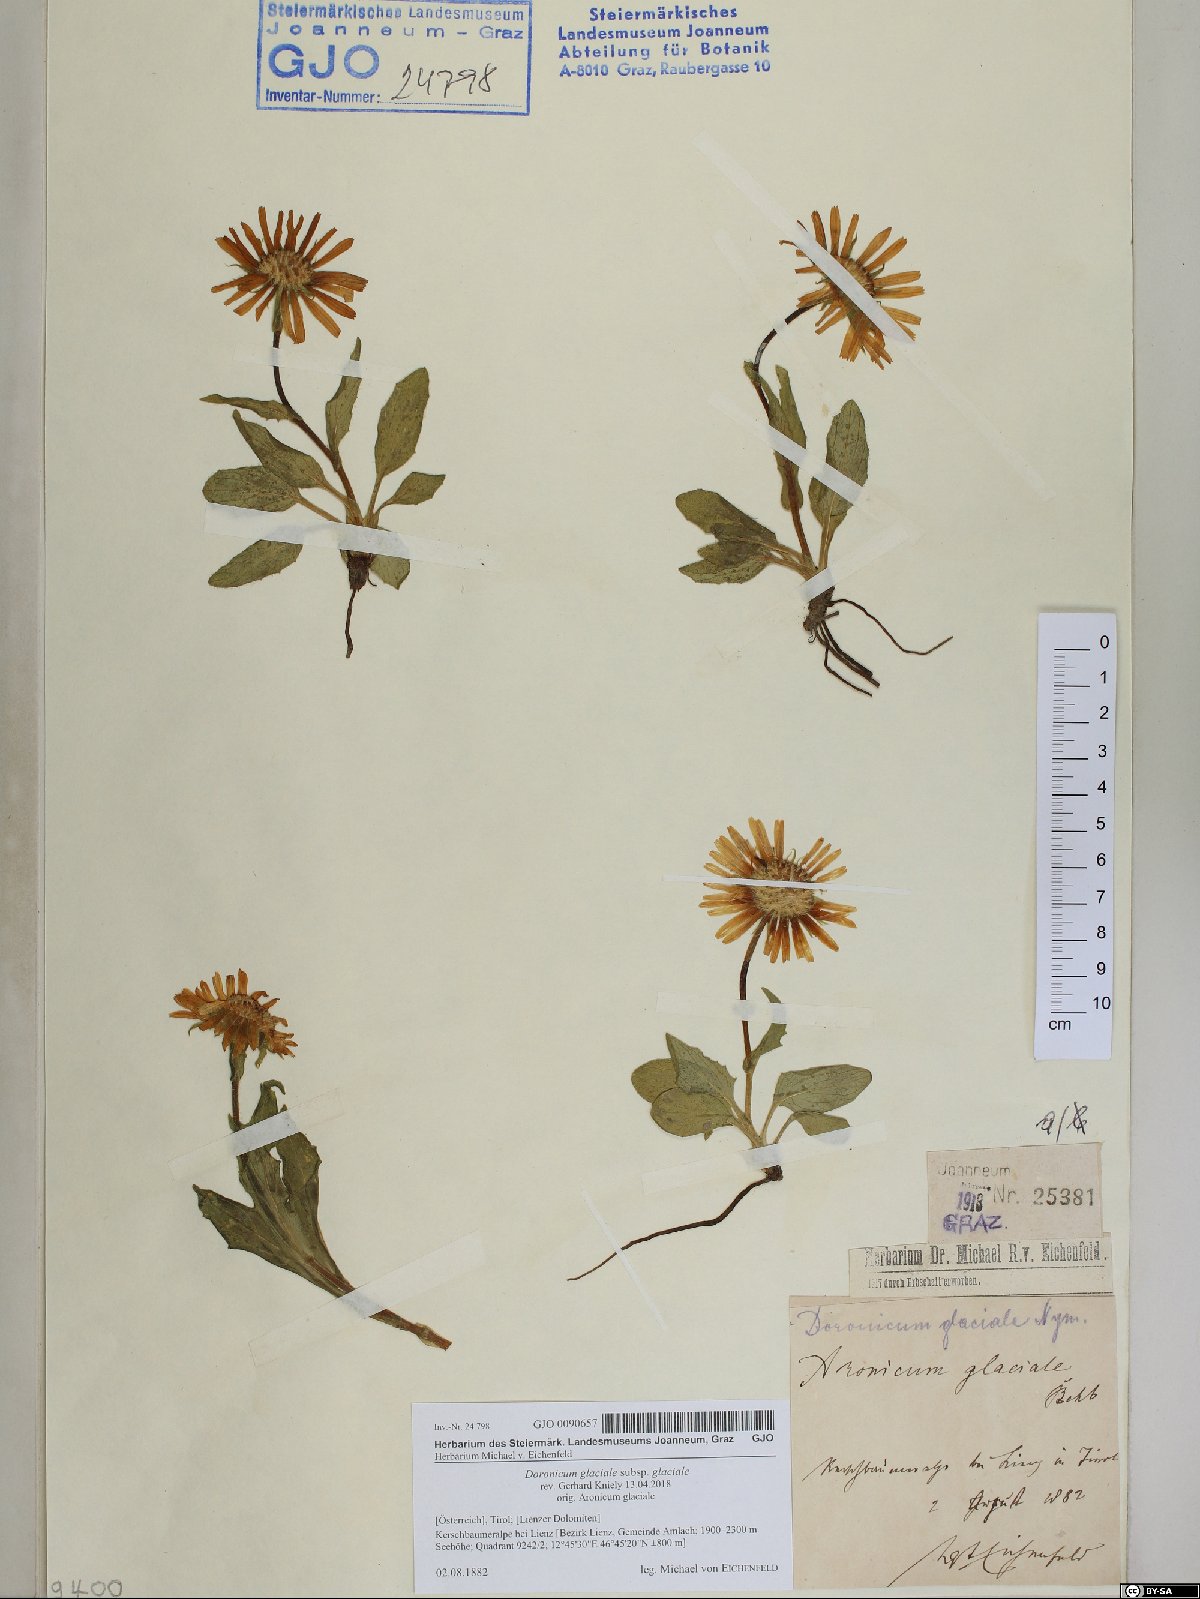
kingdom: Plantae
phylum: Tracheophyta
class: Magnoliopsida
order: Asterales
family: Asteraceae
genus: Doronicum
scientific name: Doronicum glaciale
